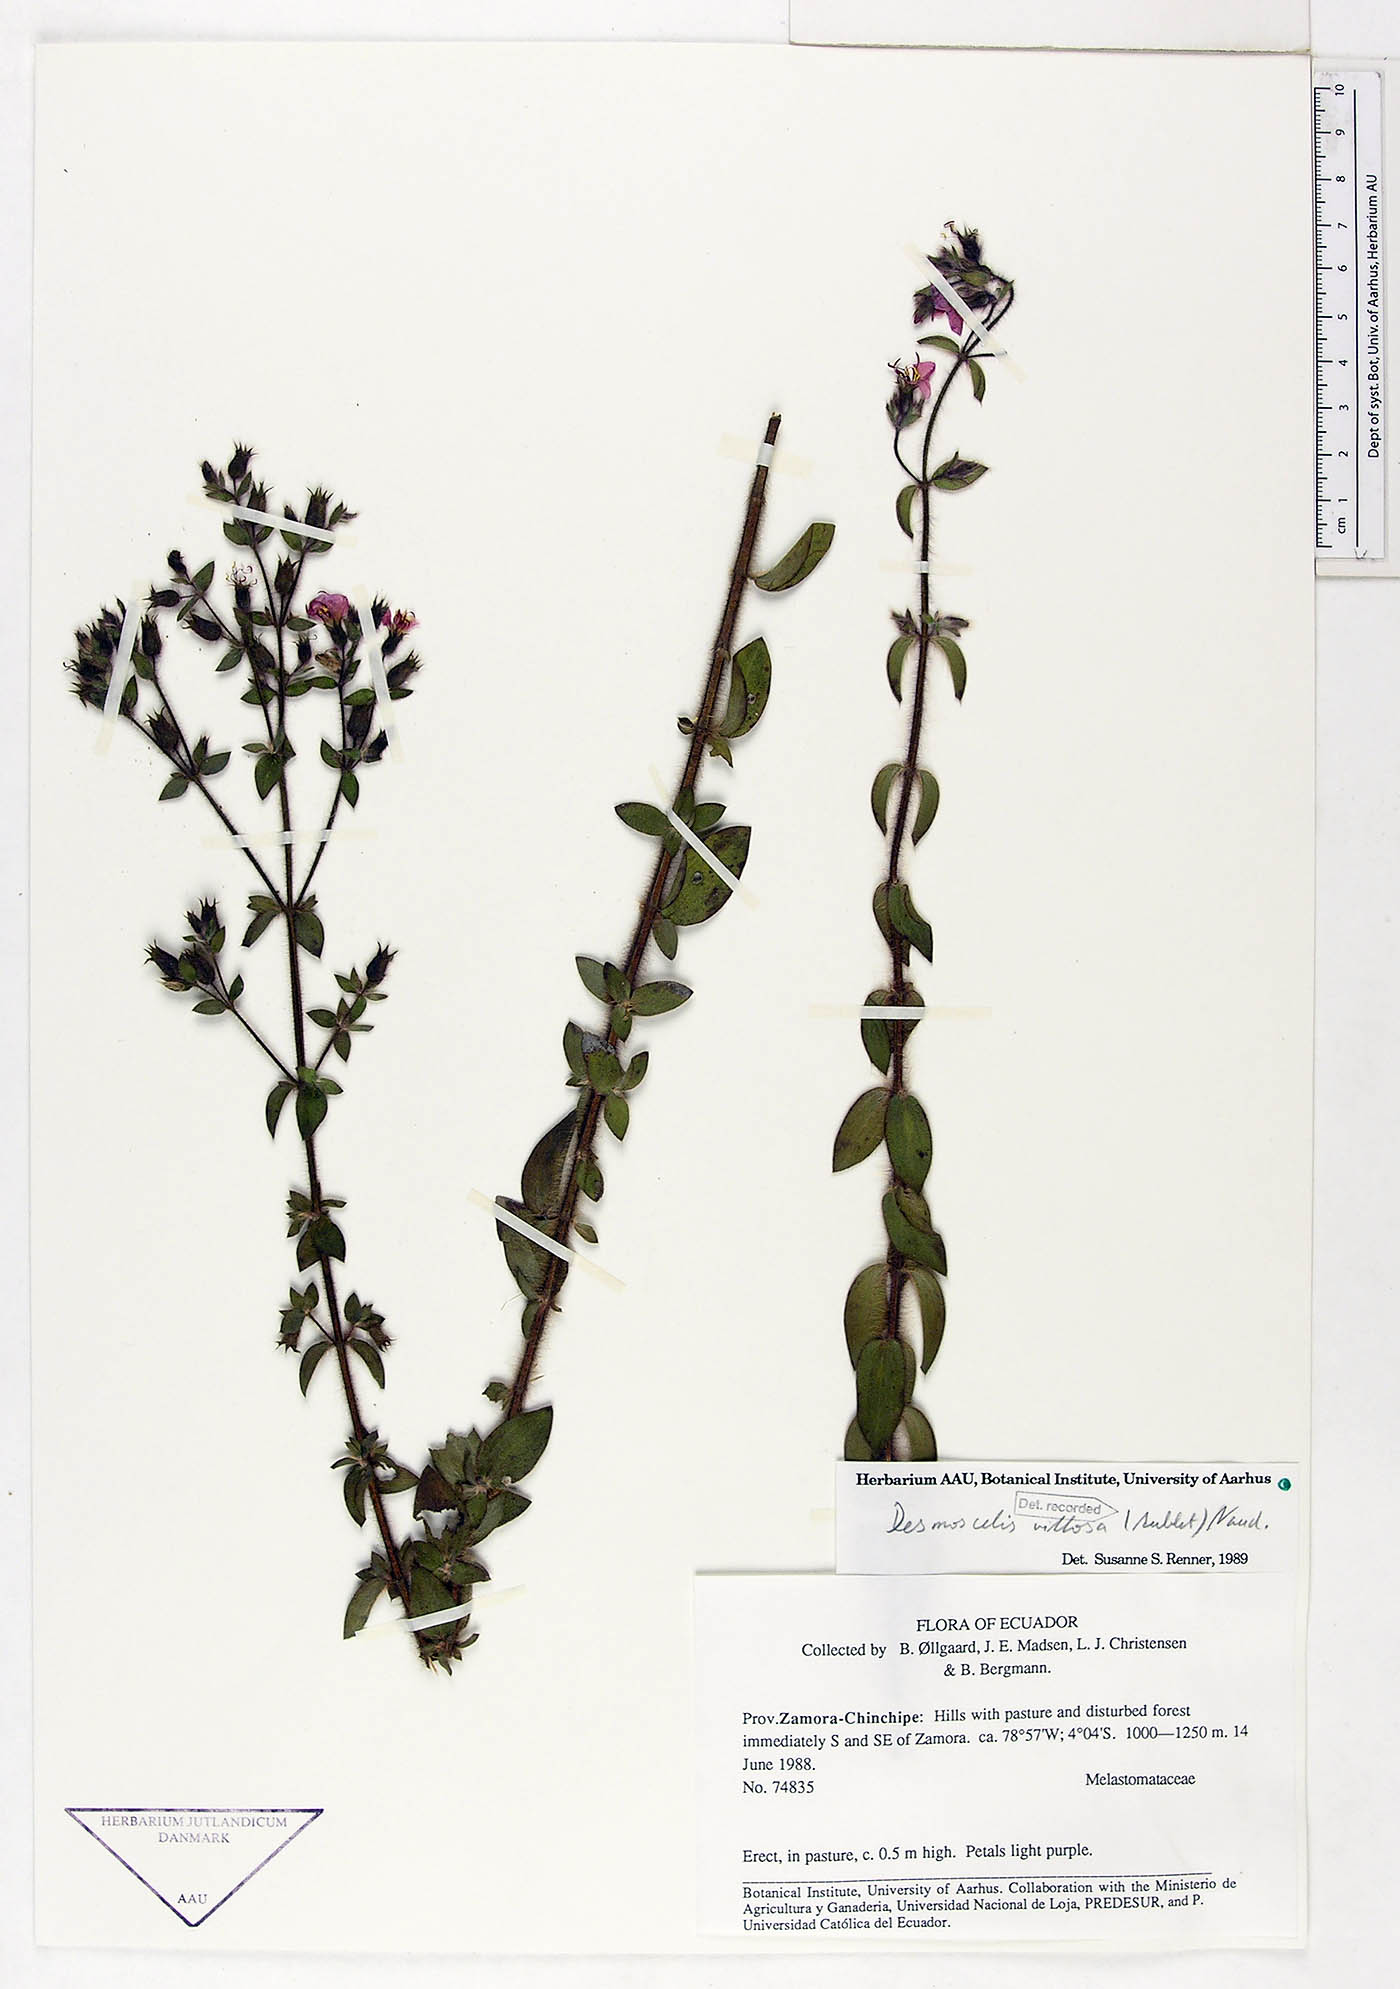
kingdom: Plantae
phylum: Tracheophyta
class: Magnoliopsida
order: Myrtales
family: Melastomataceae
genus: Desmoscelis
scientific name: Desmoscelis villosa
